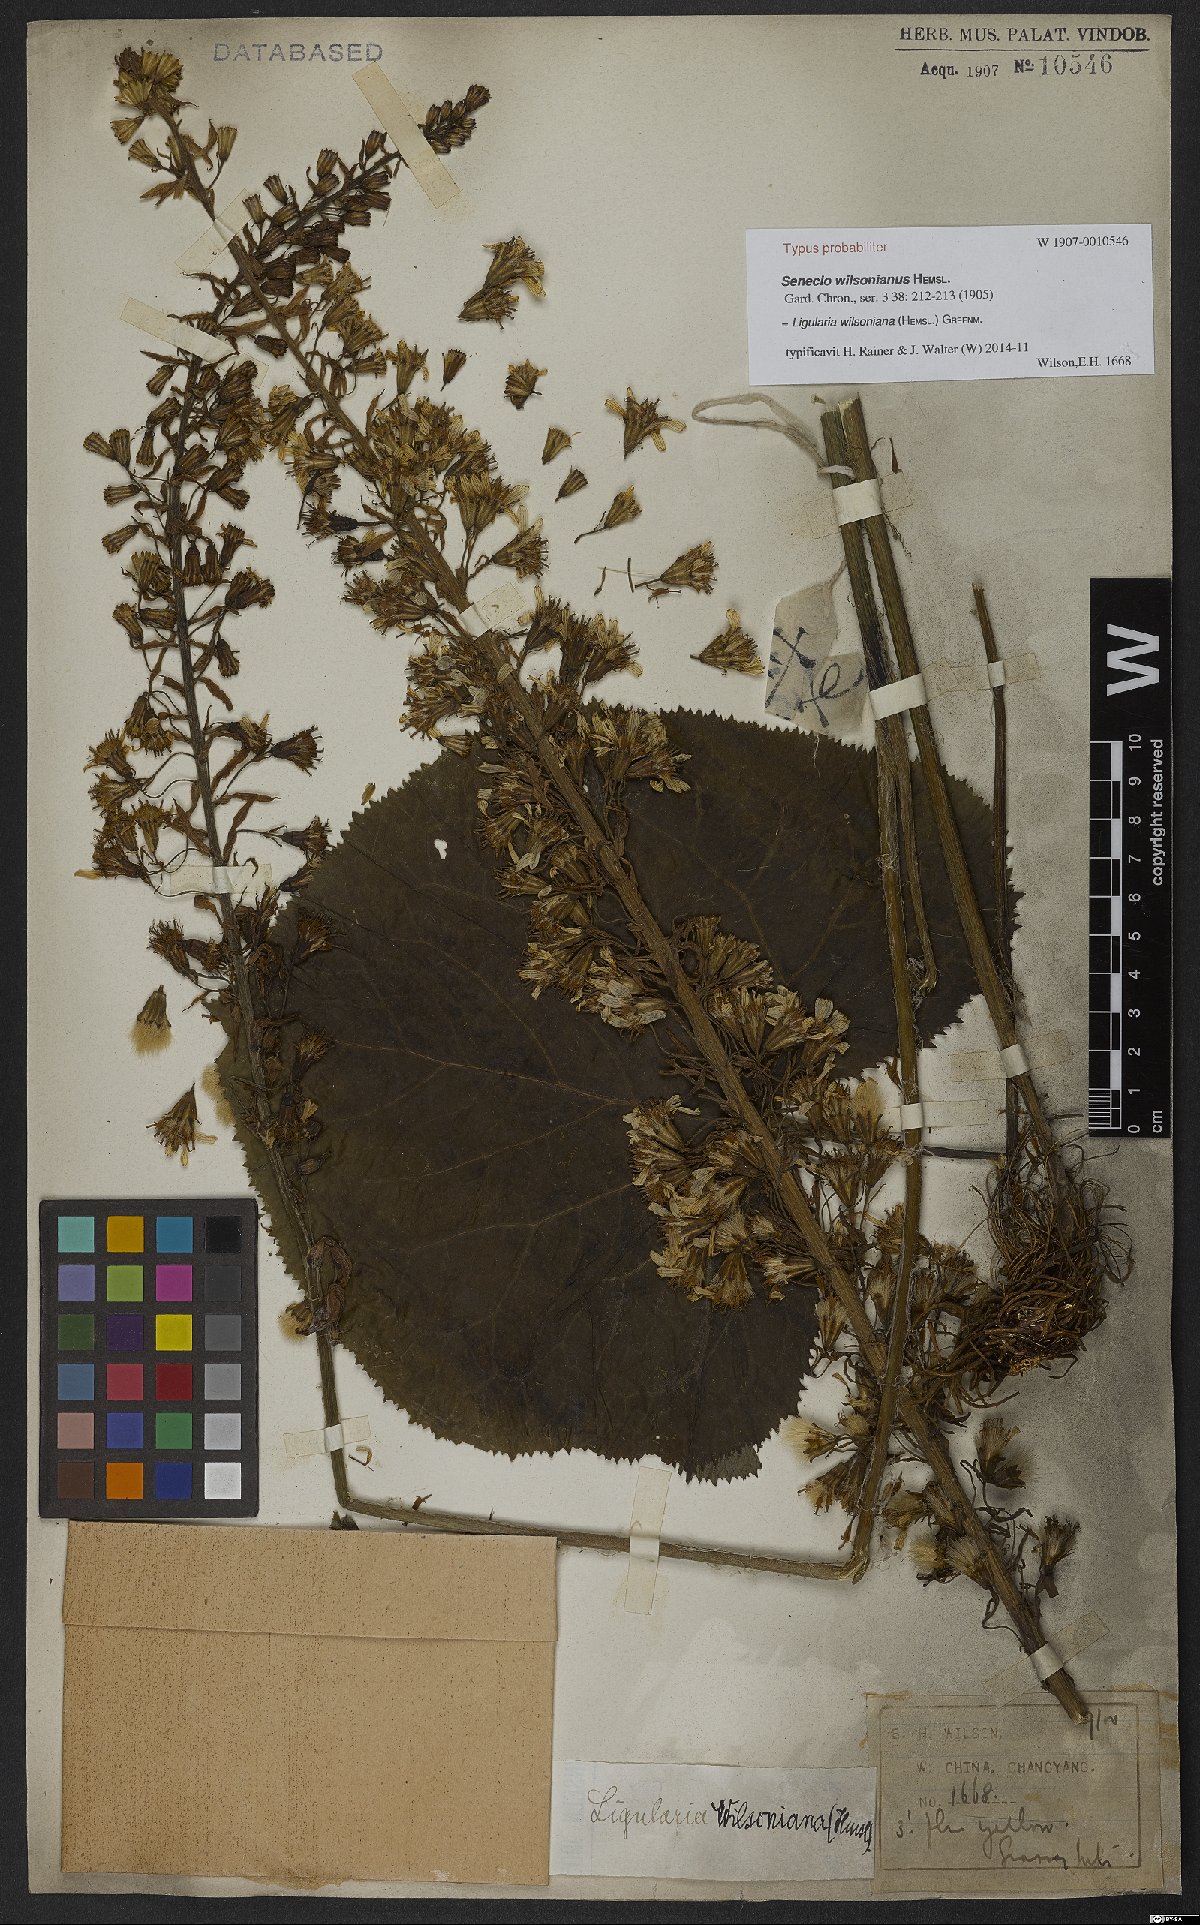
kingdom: Plantae
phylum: Tracheophyta
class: Magnoliopsida
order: Asterales
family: Asteraceae
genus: Ligularia
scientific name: Ligularia wilsoniana
